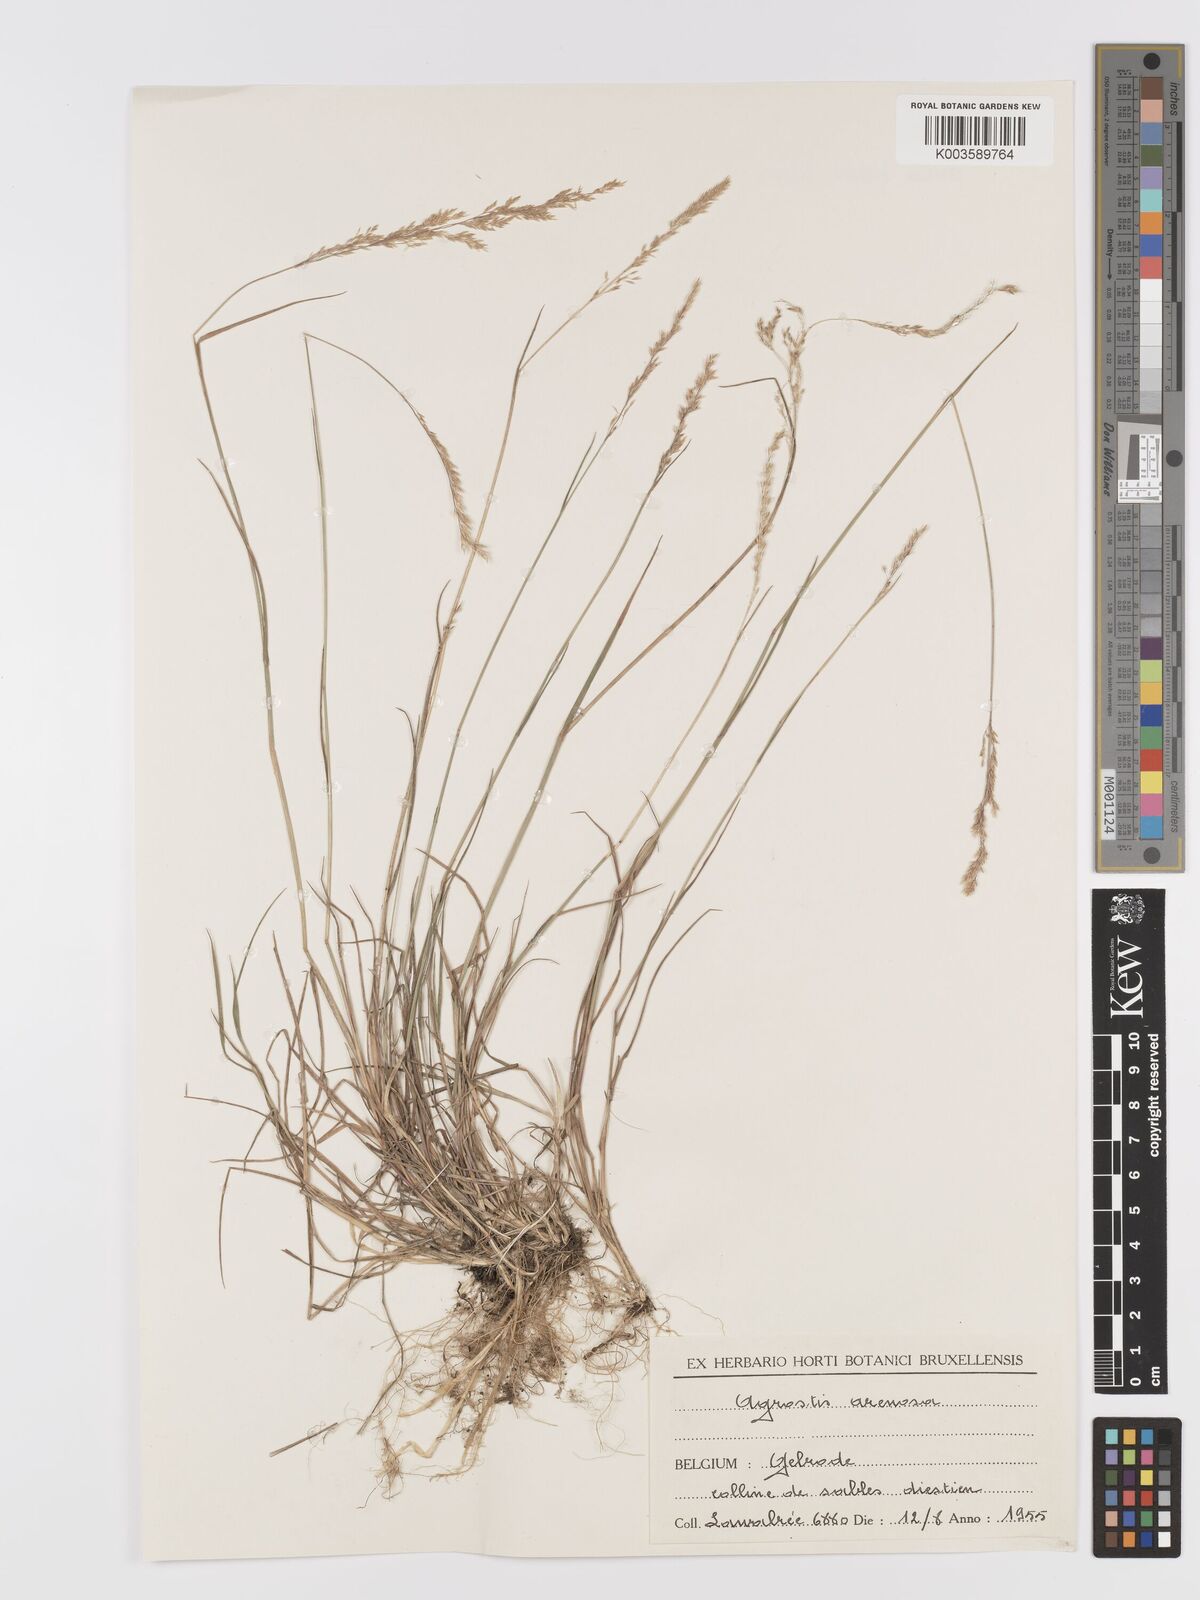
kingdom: Plantae
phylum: Tracheophyta
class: Liliopsida
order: Poales
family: Poaceae
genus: Agrostis
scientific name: Agrostis
